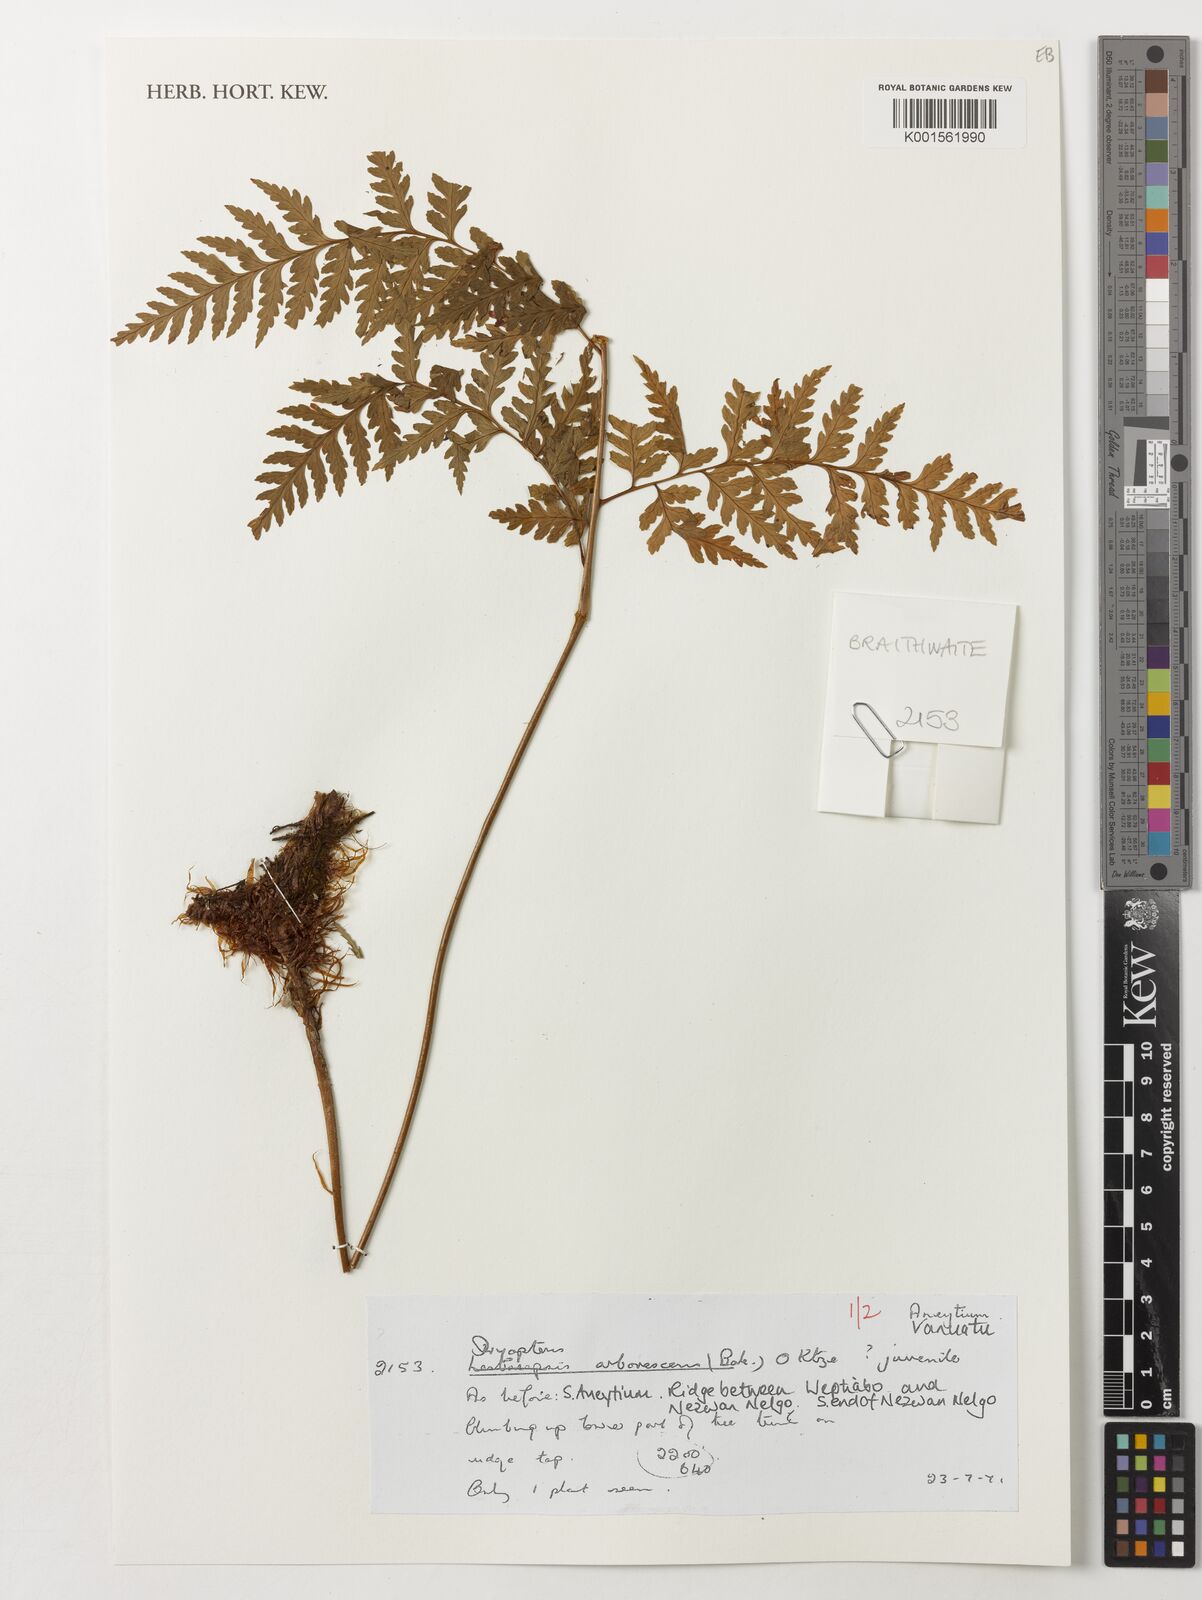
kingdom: Plantae
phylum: Tracheophyta
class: Polypodiopsida
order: Polypodiales
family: Dryopteridaceae
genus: Dryopteris
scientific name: Dryopteris arborescens
